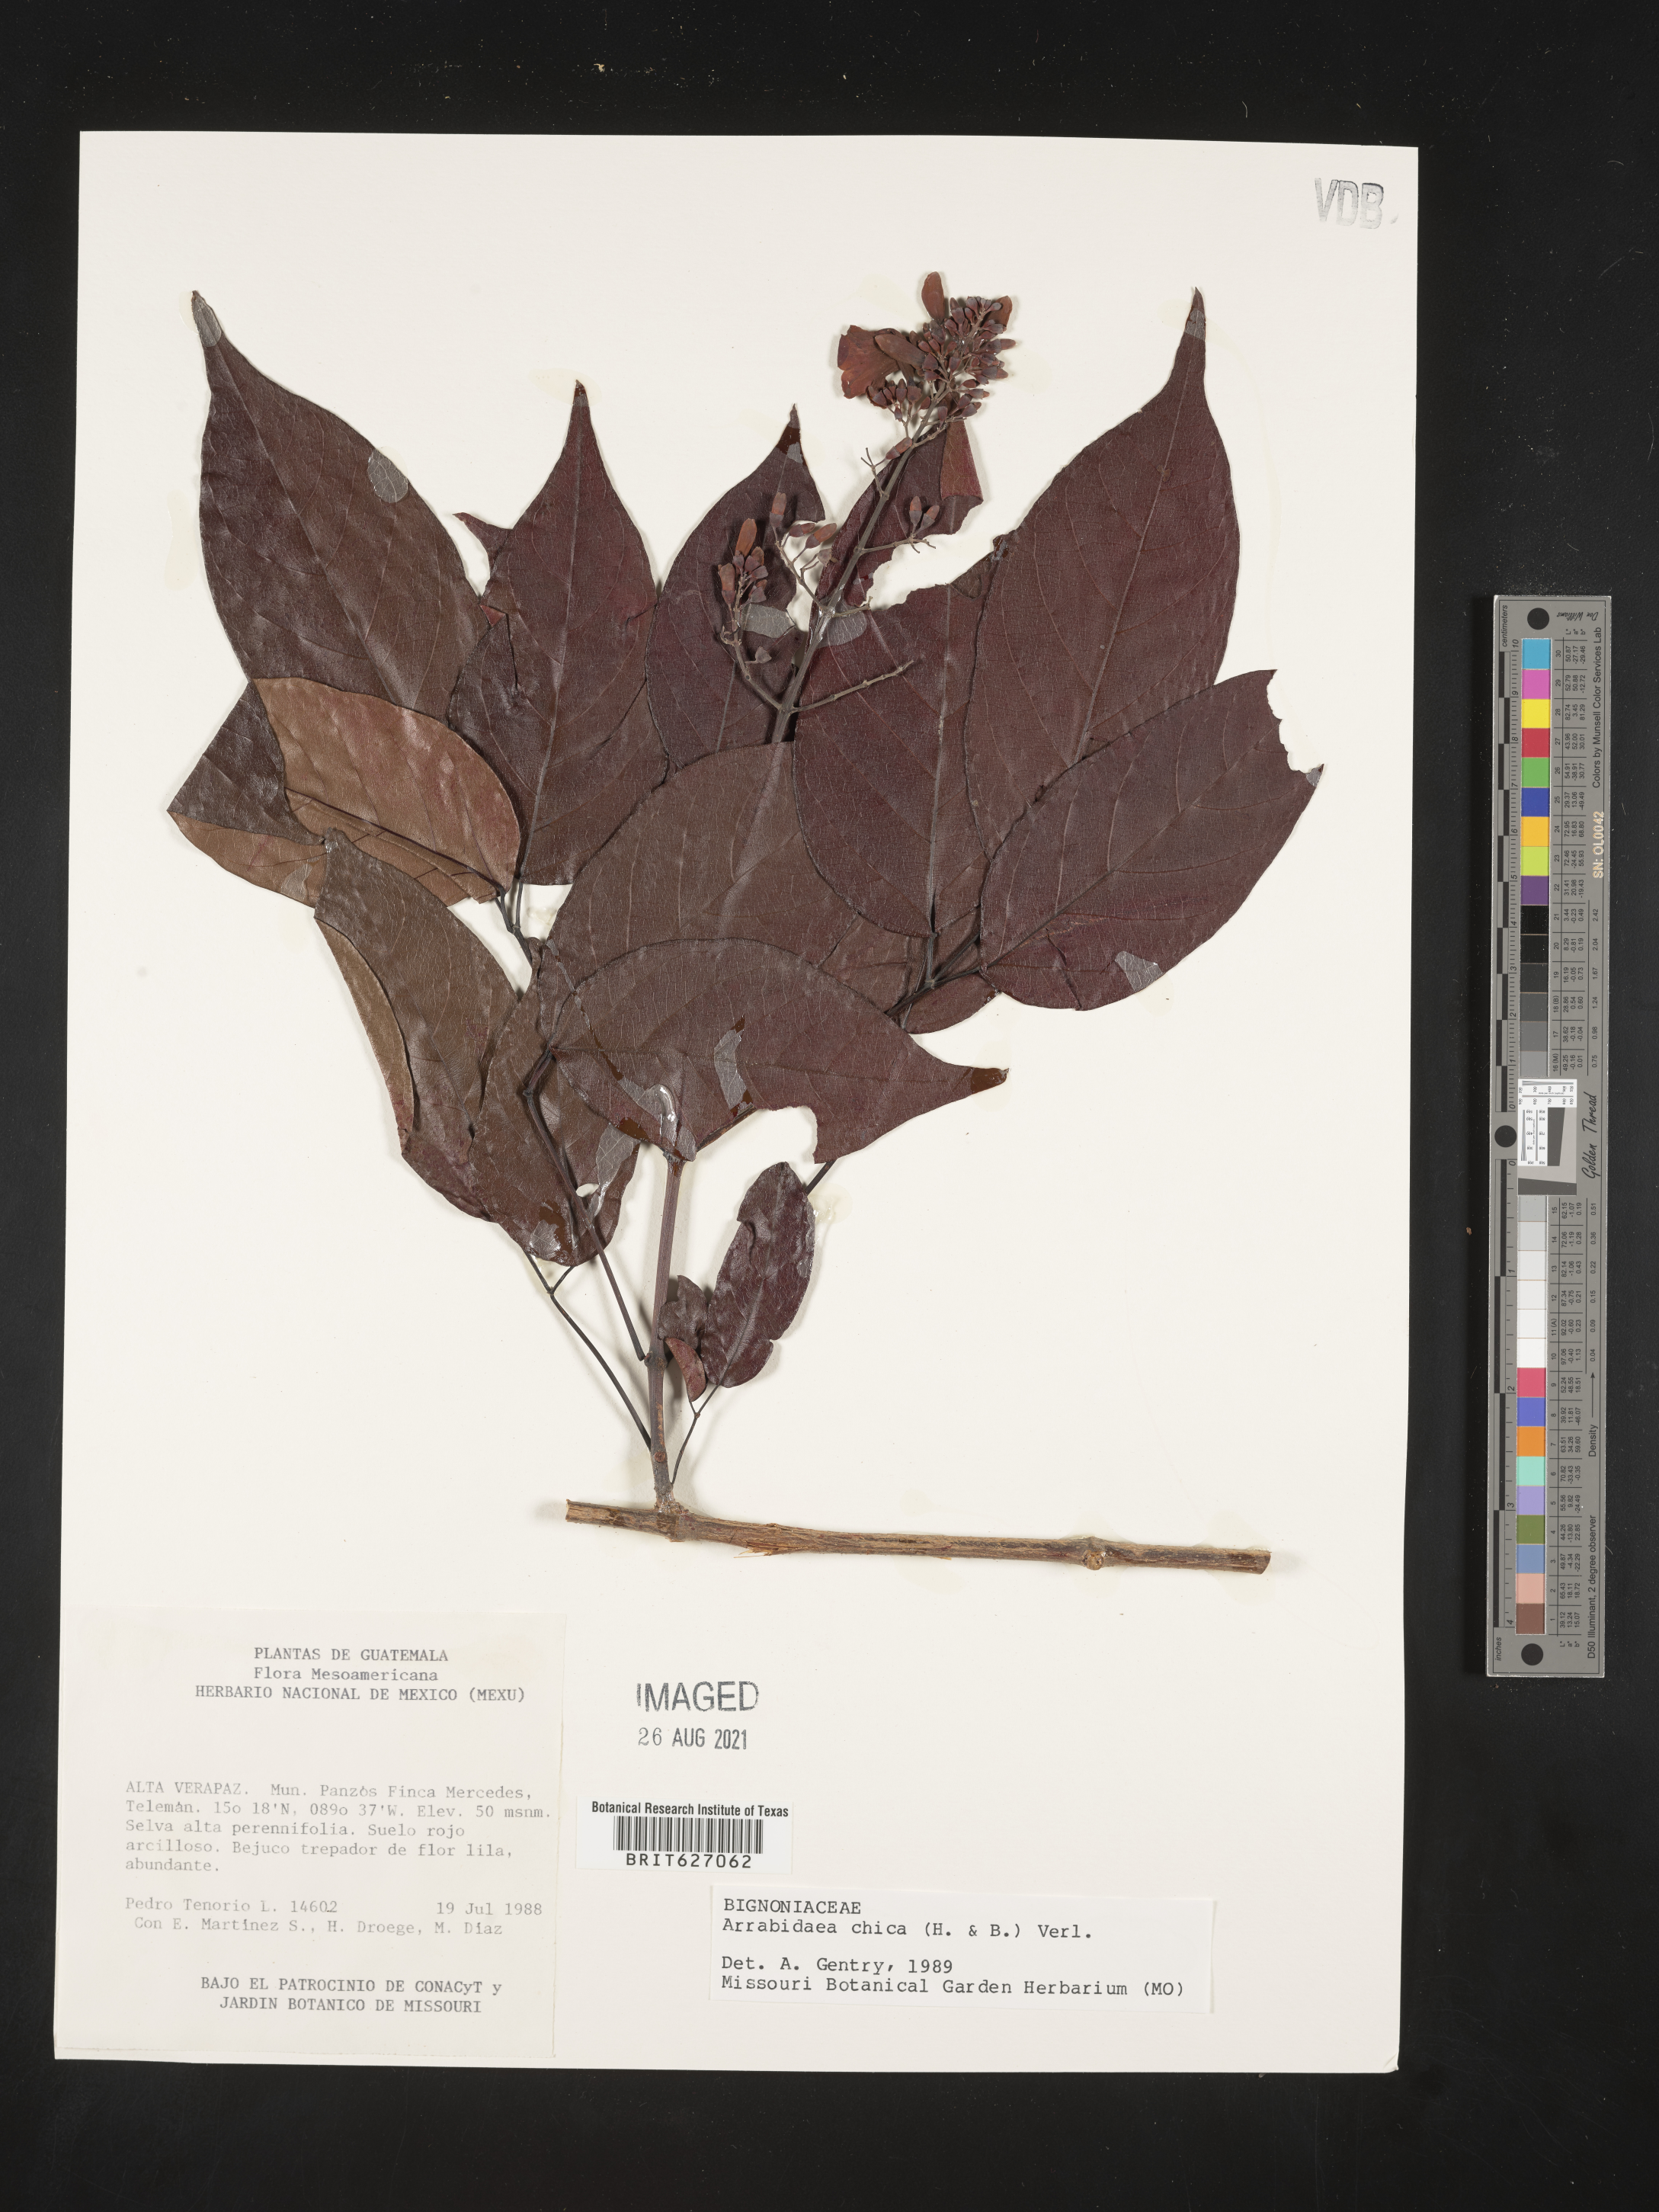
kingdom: Plantae
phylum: Tracheophyta
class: Magnoliopsida
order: Lamiales
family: Bignoniaceae
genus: Fridericia
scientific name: Fridericia chica
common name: Cricketvine
